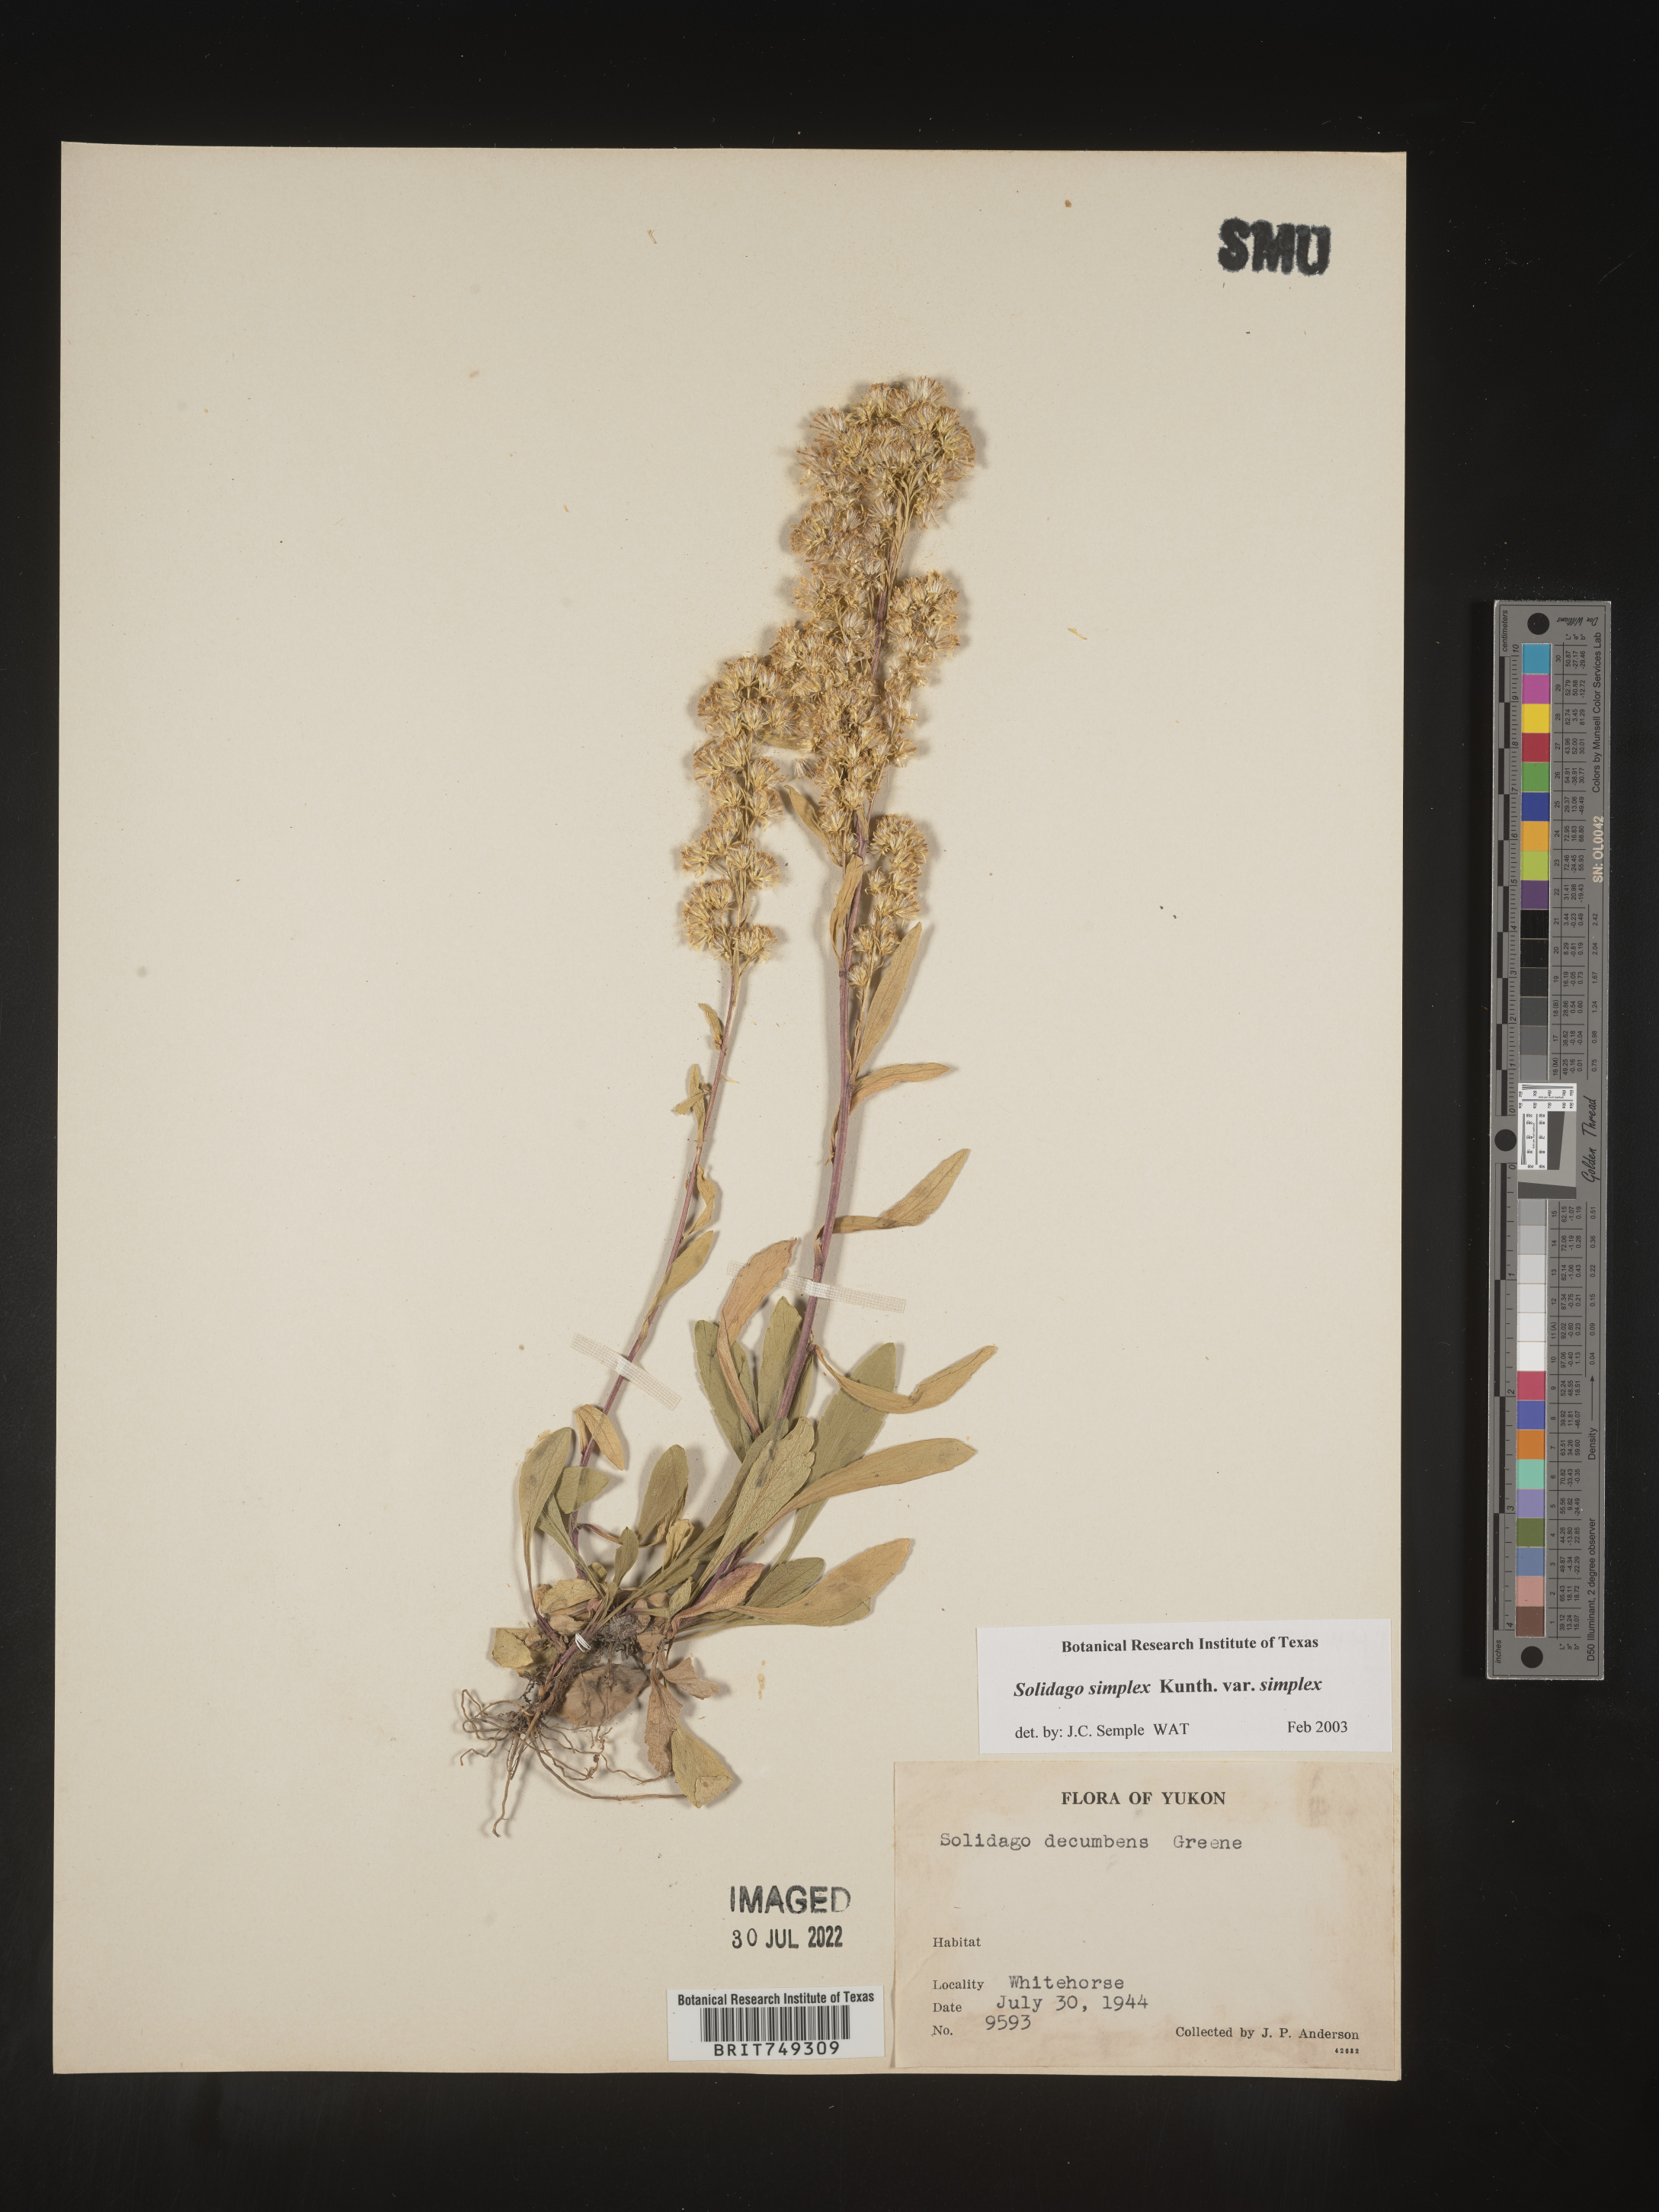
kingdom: Plantae
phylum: Tracheophyta
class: Magnoliopsida
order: Asterales
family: Asteraceae
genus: Solidago
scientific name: Solidago simplex
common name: Sticky goldenrod
